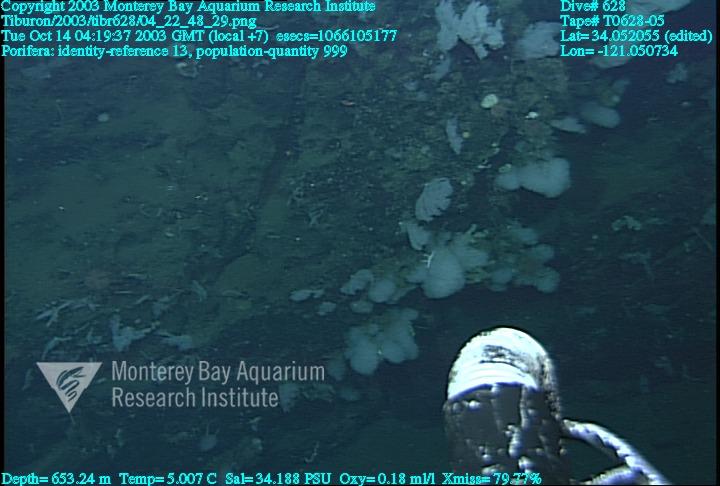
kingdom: Animalia
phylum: Porifera
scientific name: Porifera
